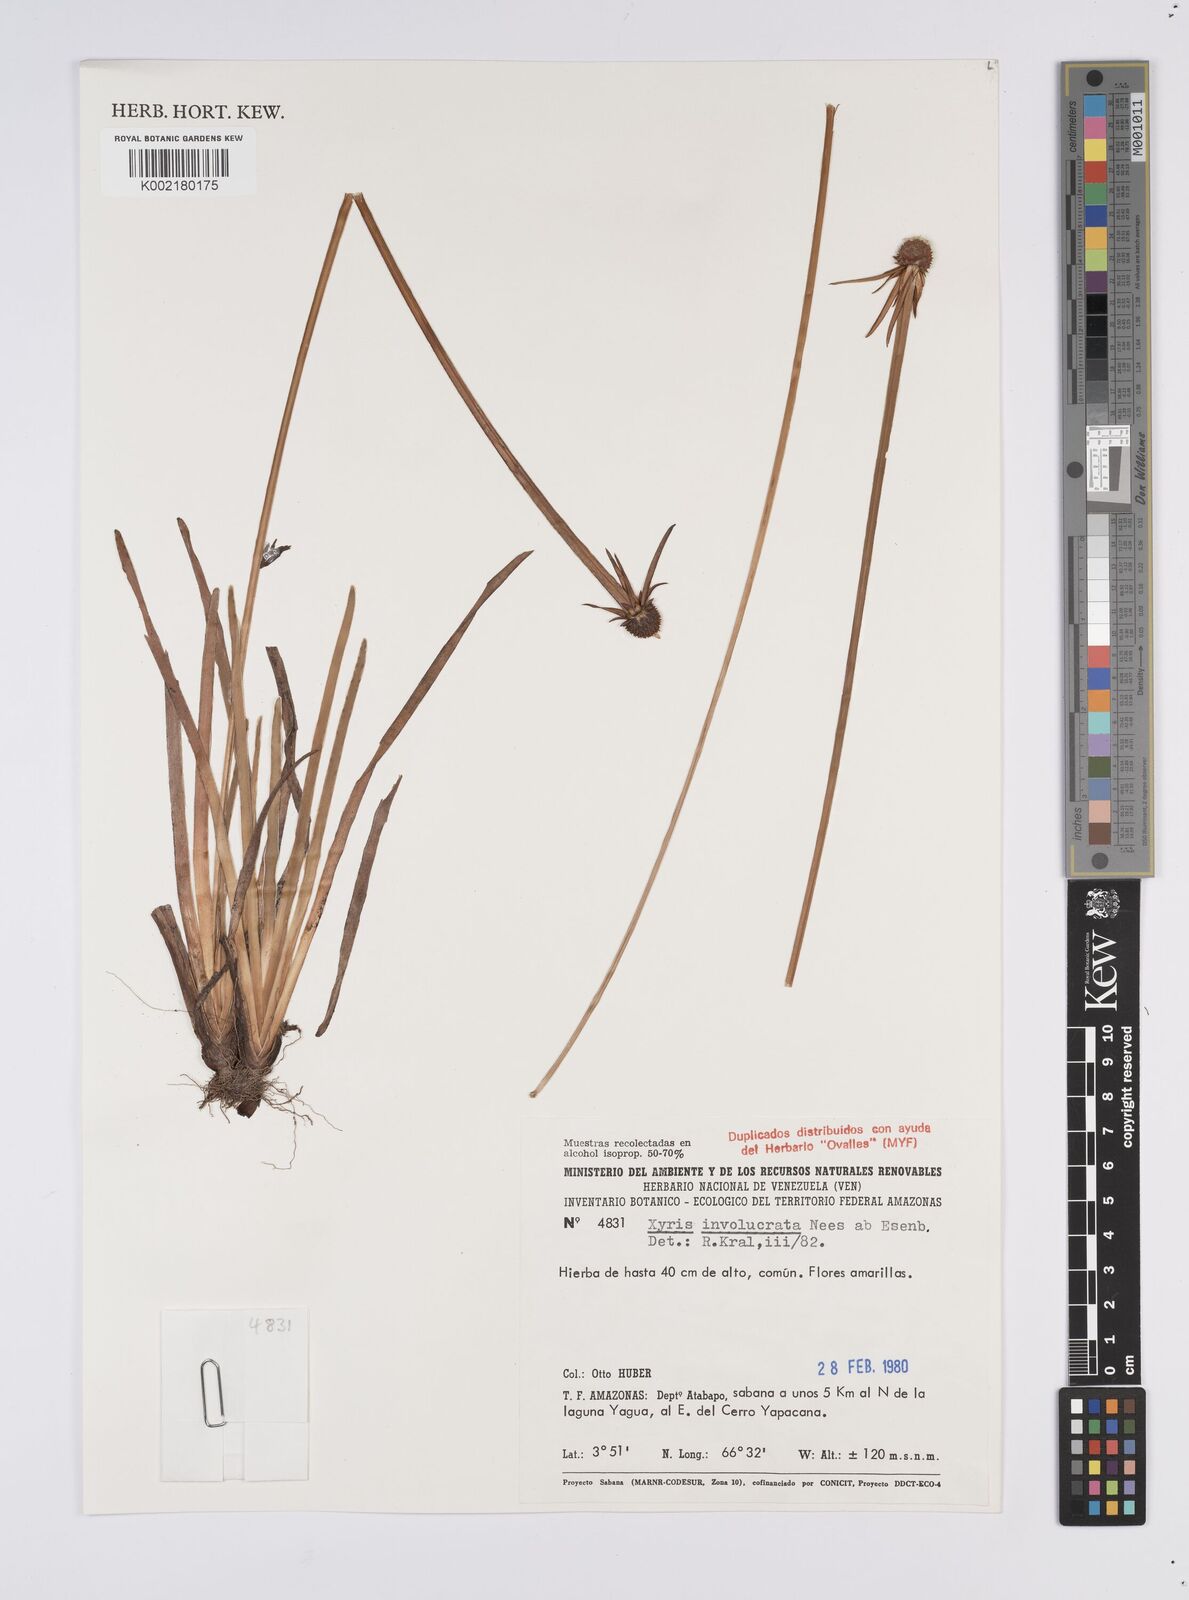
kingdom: Plantae
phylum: Tracheophyta
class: Liliopsida
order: Poales
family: Xyridaceae
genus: Xyris
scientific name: Xyris involucrata
